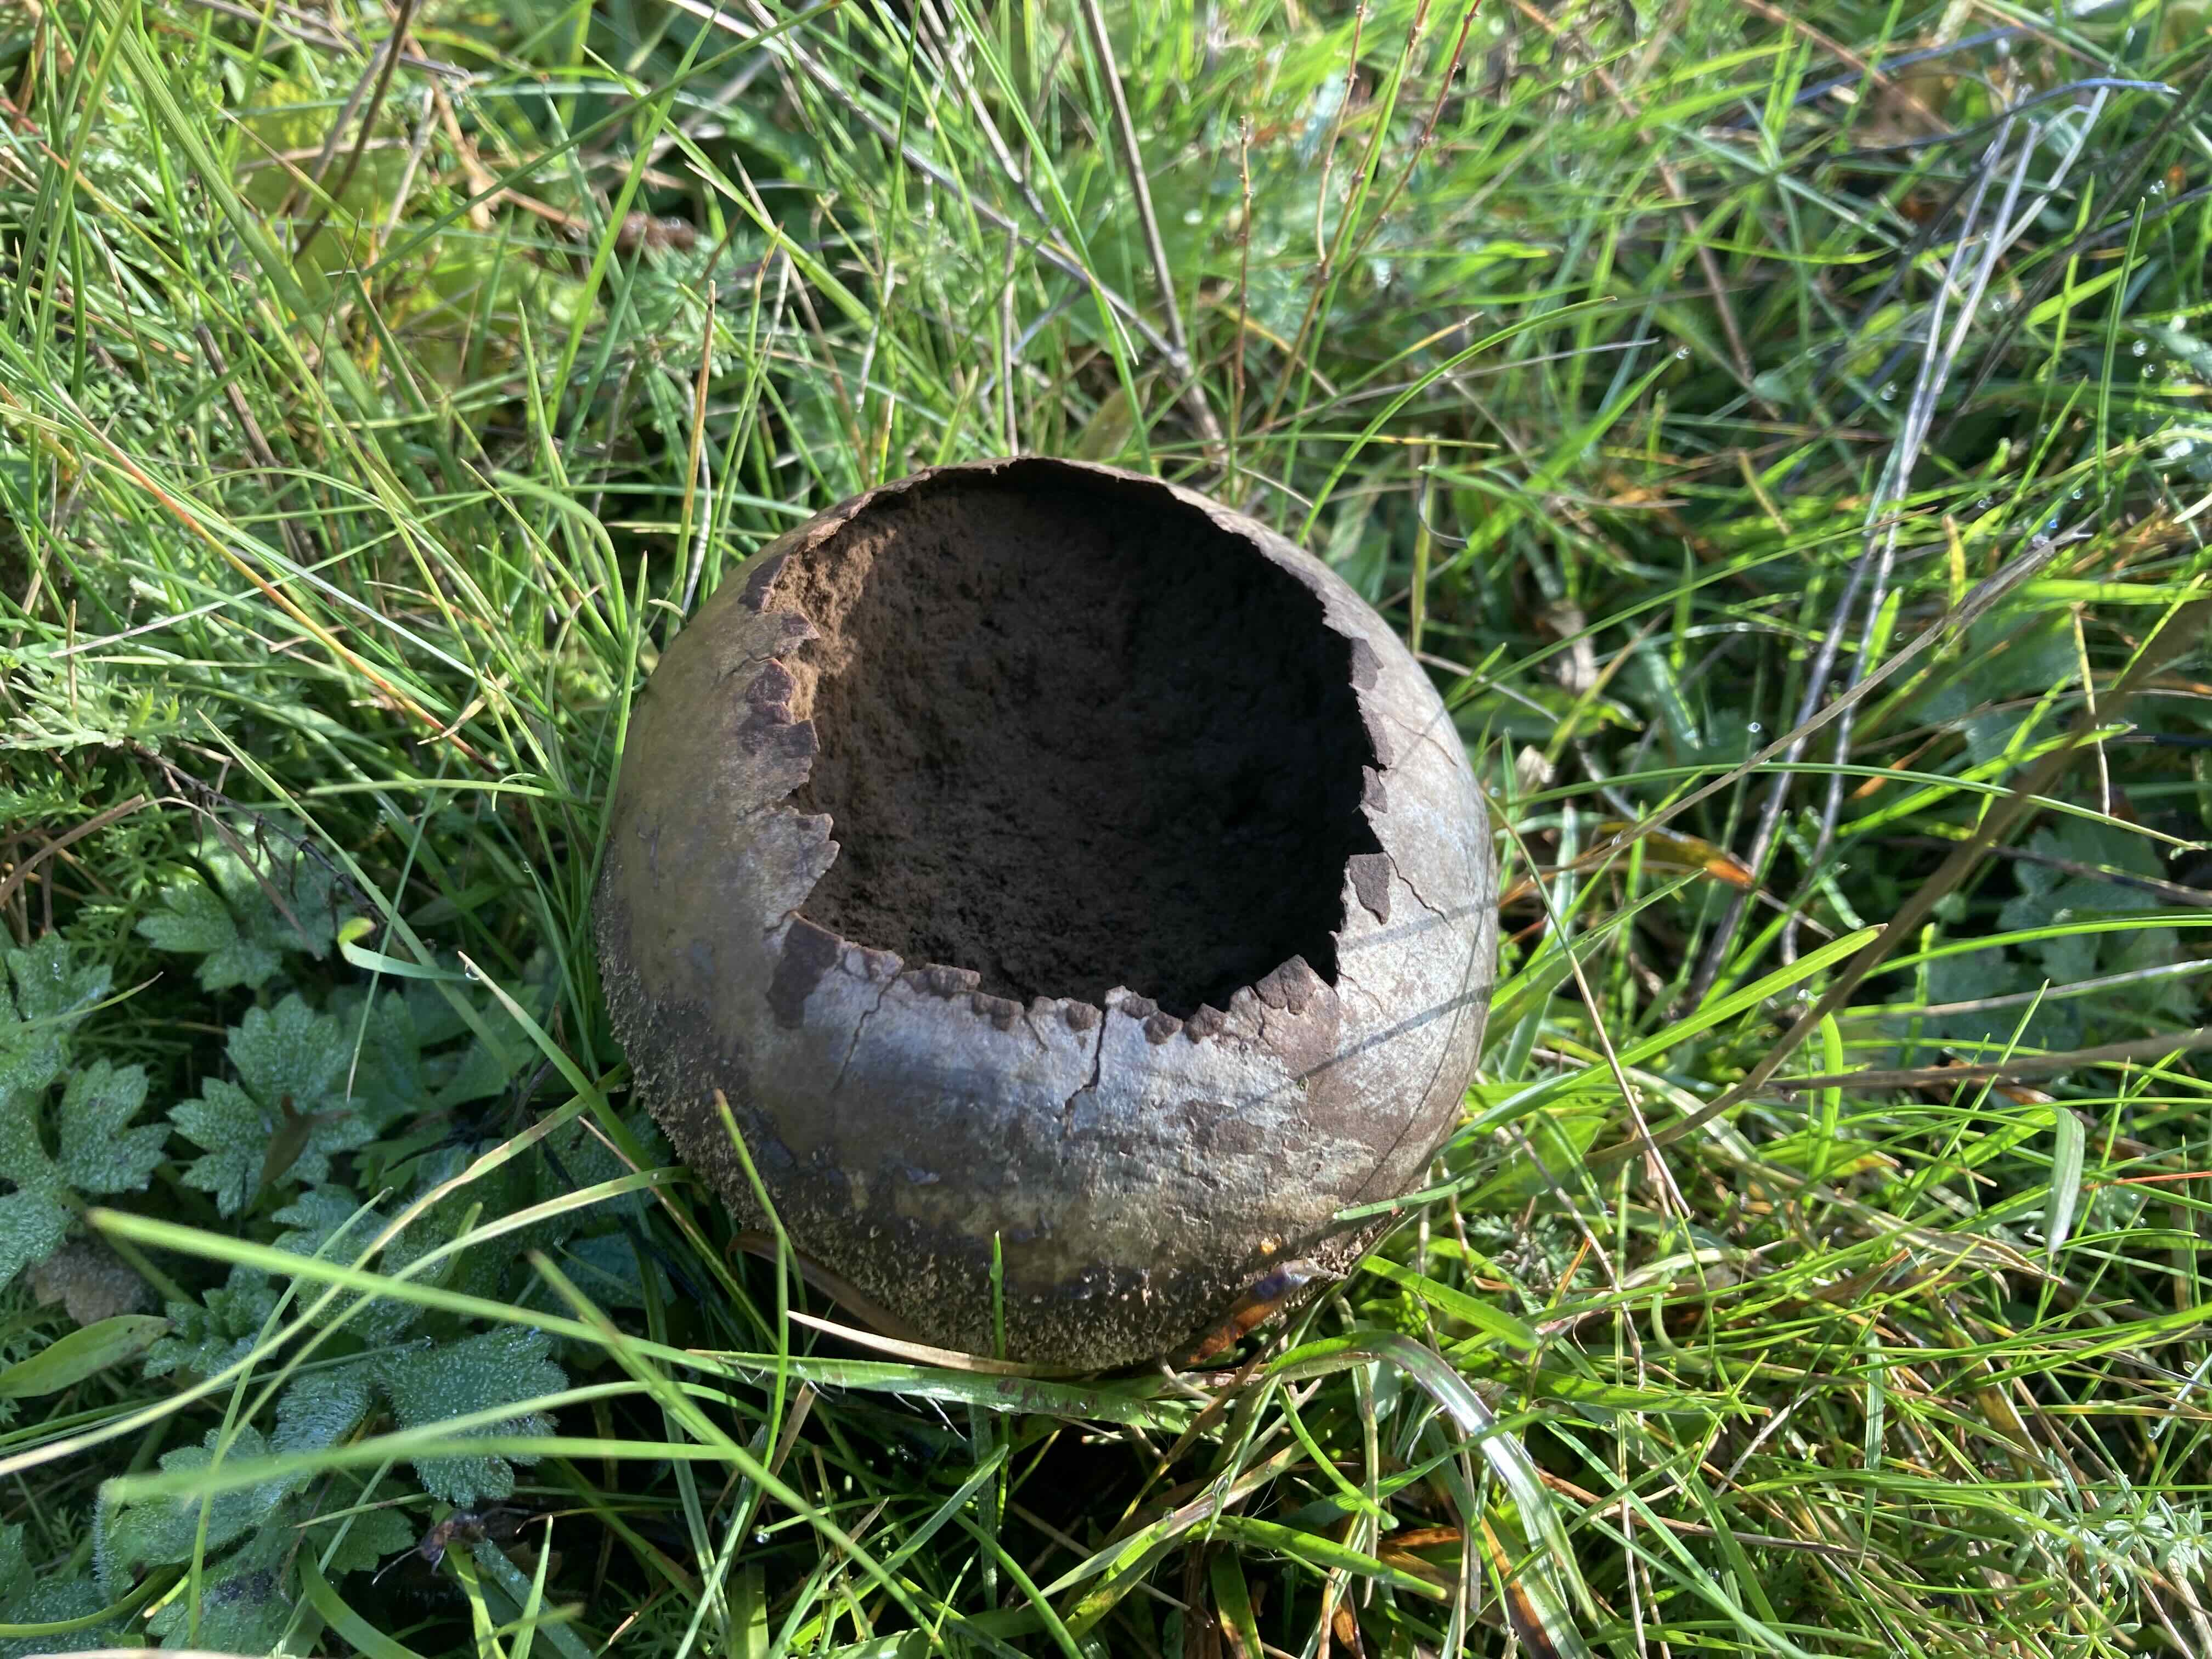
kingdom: Fungi
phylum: Basidiomycota
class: Agaricomycetes
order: Agaricales
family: Lycoperdaceae
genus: Bovistella
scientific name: Bovistella utriformis
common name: skællet støvbold
